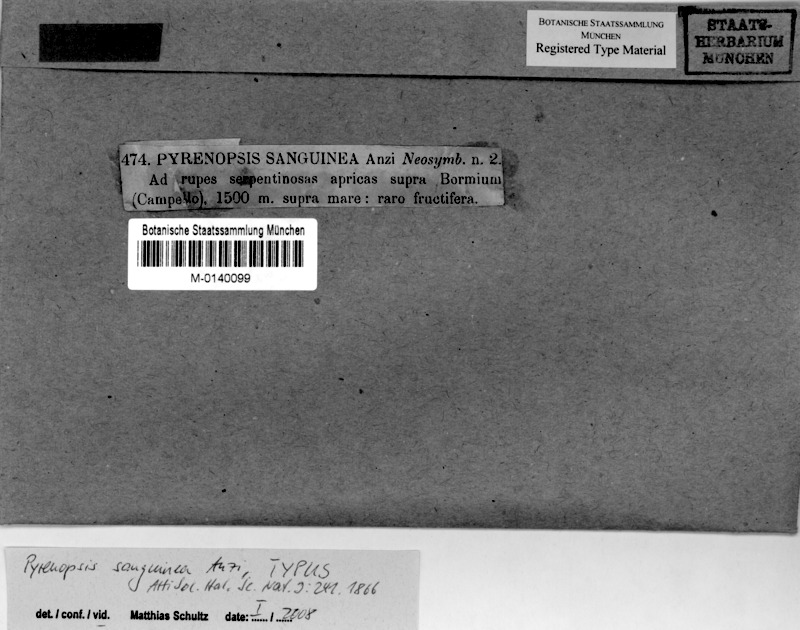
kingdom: Fungi
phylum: Ascomycota
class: Lichinomycetes
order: Lichinales
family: Lichinaceae
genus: Pyrenopsis
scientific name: Pyrenopsis sanguinea
